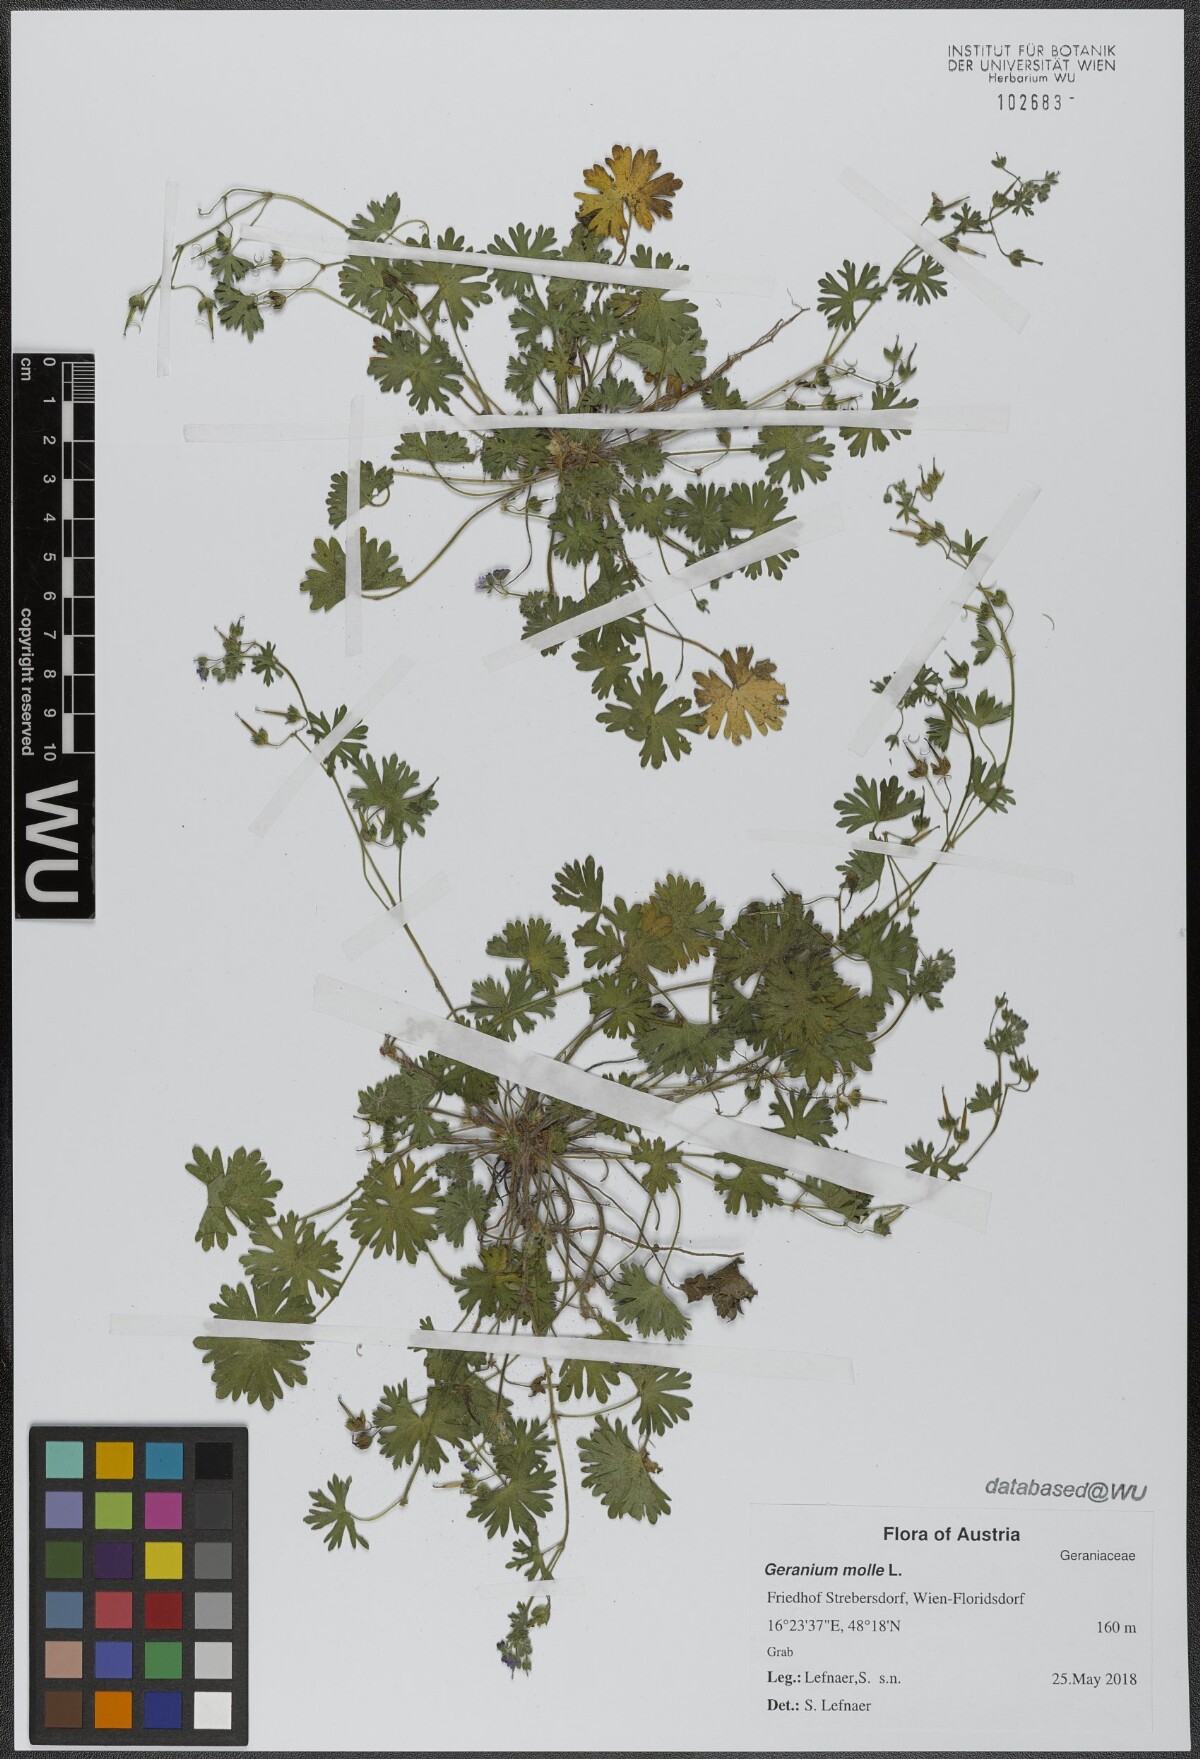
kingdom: Plantae
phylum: Tracheophyta
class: Magnoliopsida
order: Geraniales
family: Geraniaceae
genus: Geranium
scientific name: Geranium molle
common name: Dove's-foot crane's-bill
